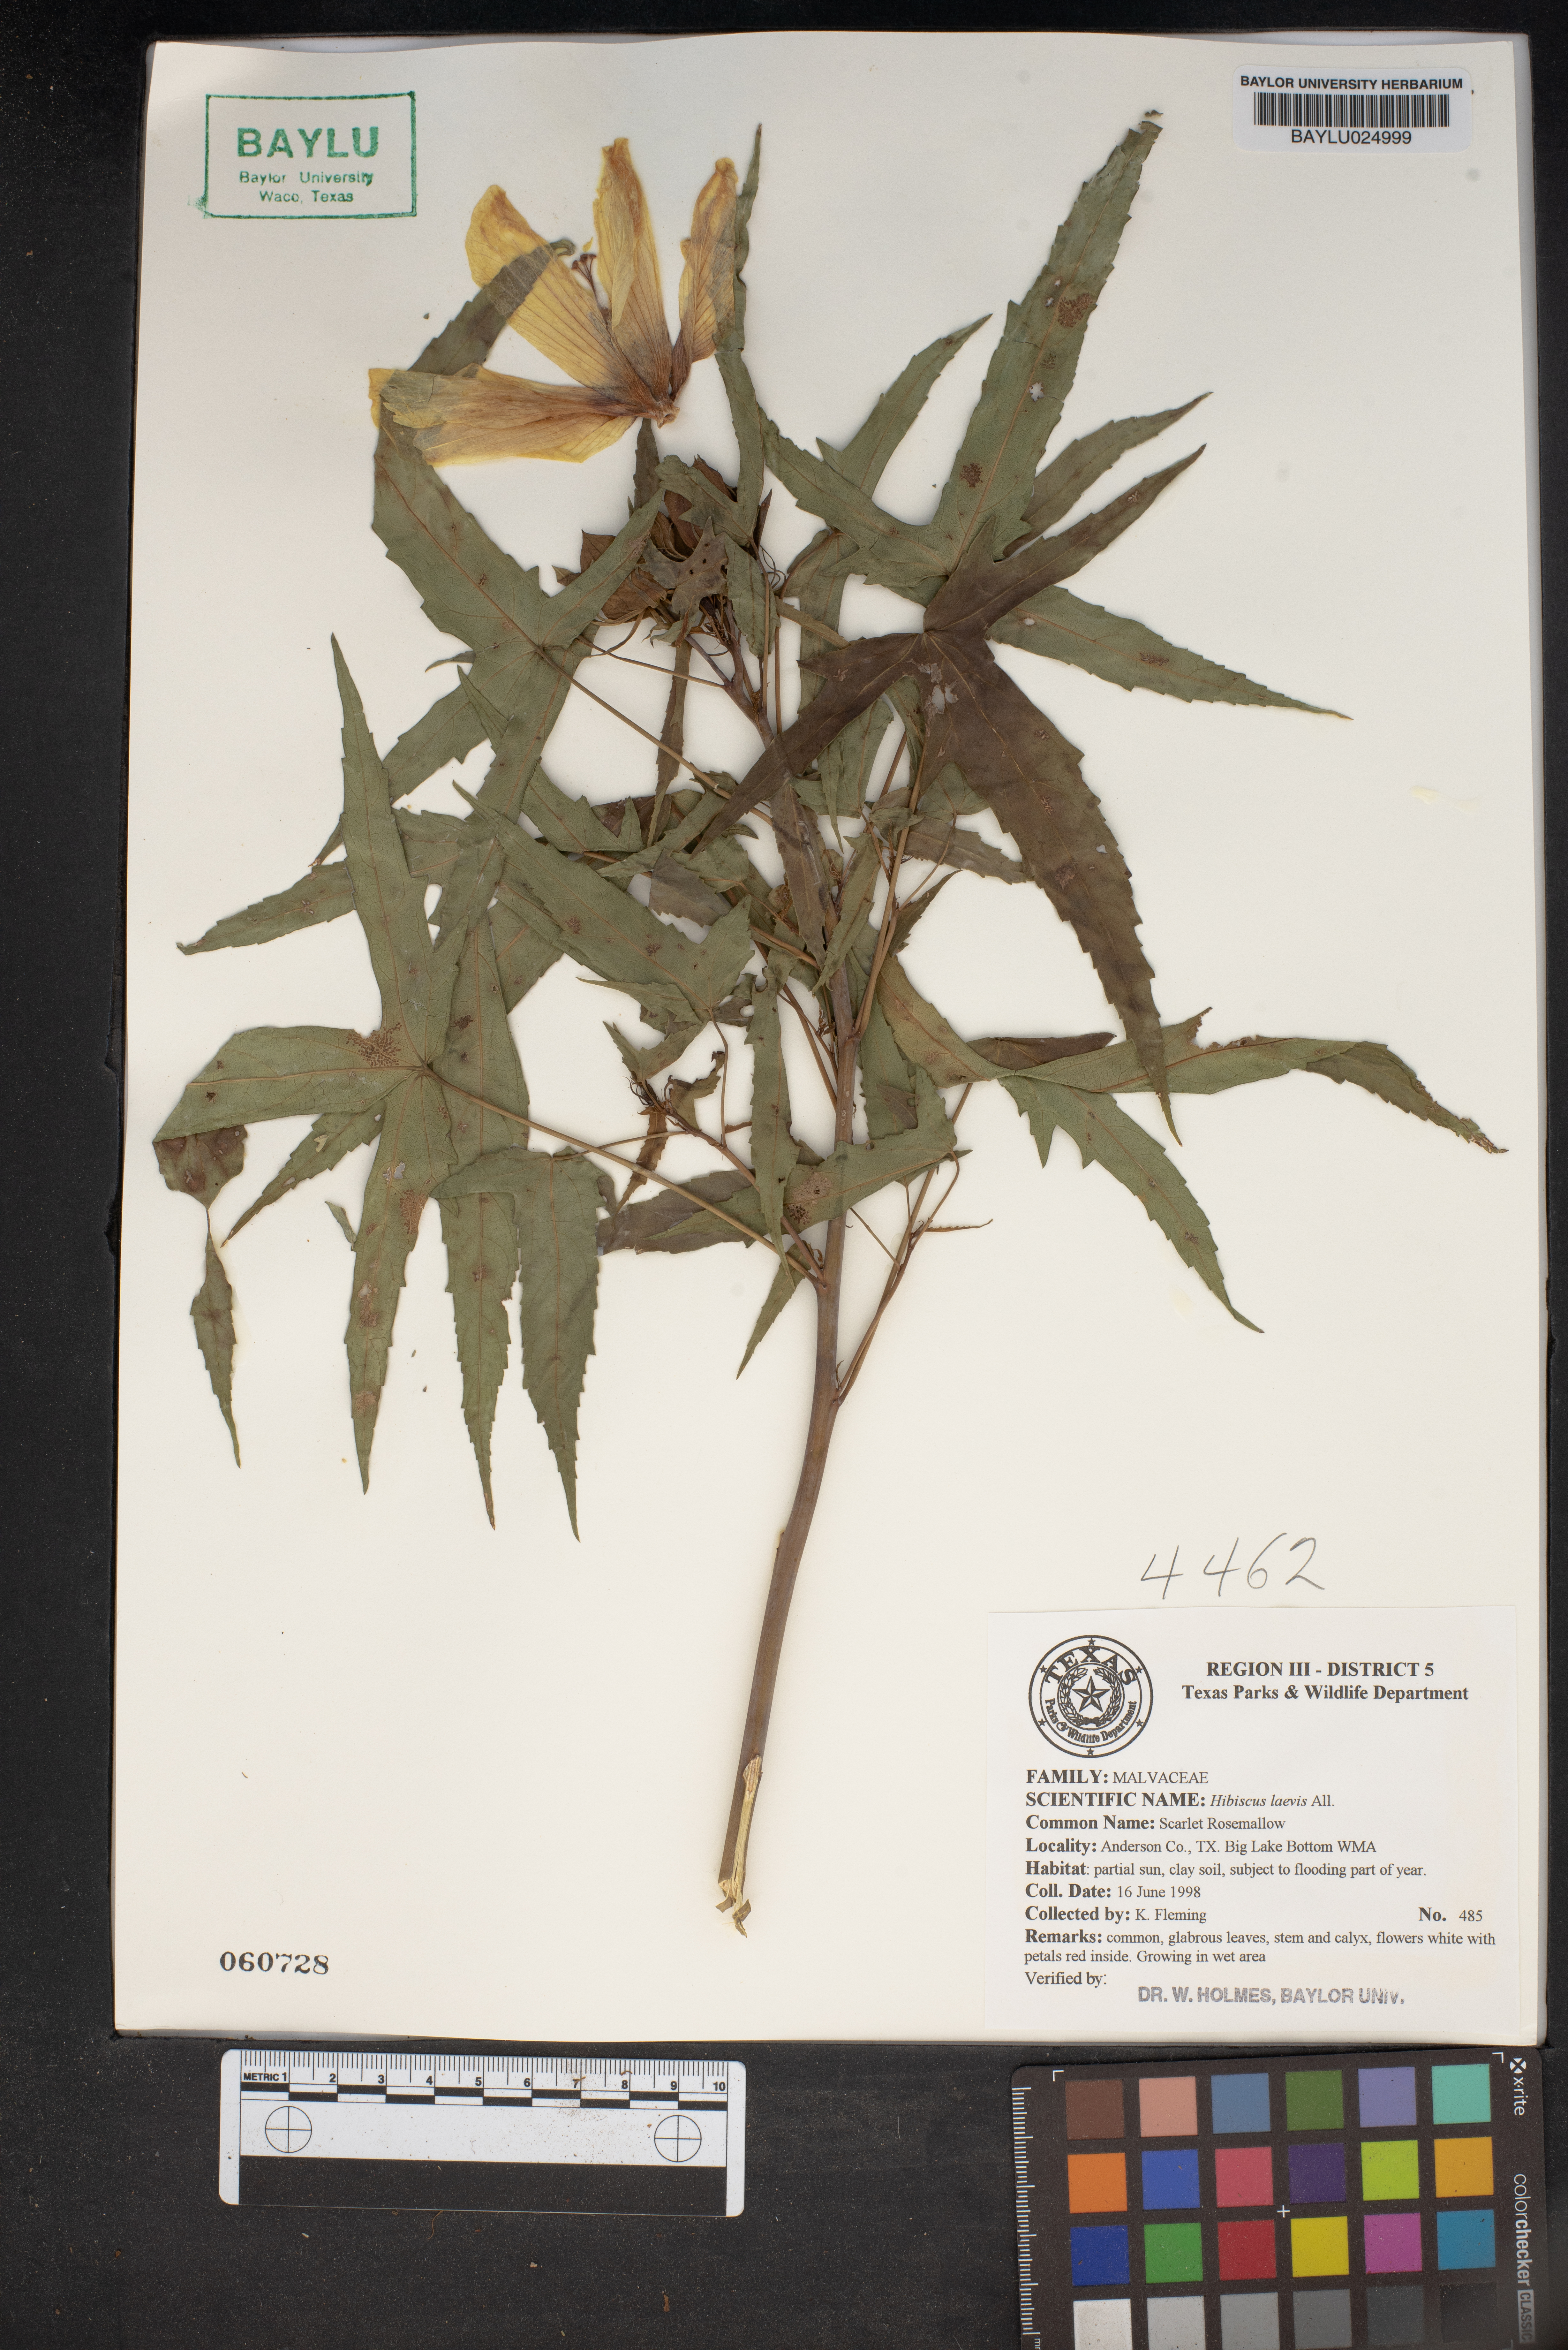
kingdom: Plantae
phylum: Tracheophyta
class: Magnoliopsida
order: Malvales
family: Malvaceae
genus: Hibiscus
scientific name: Hibiscus laevis
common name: Scarlet rose-mallow
